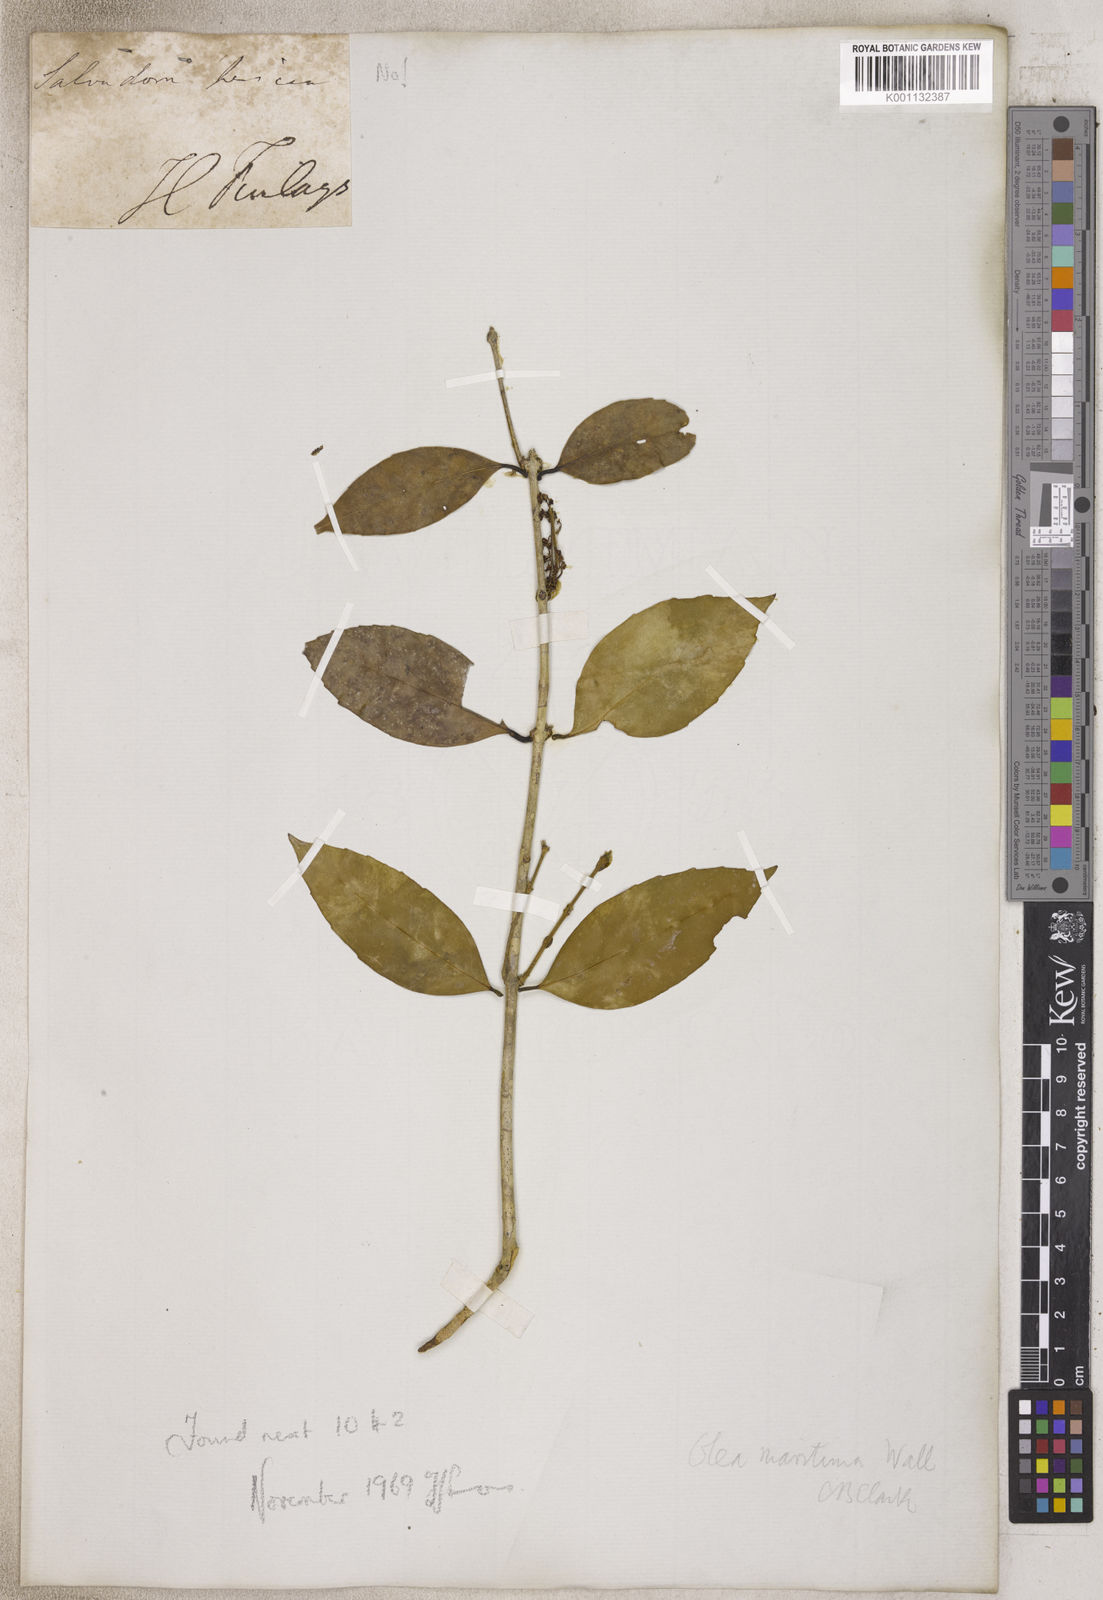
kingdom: Plantae
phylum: Tracheophyta
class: Magnoliopsida
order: Lamiales
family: Oleaceae
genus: Olea
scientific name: Olea
